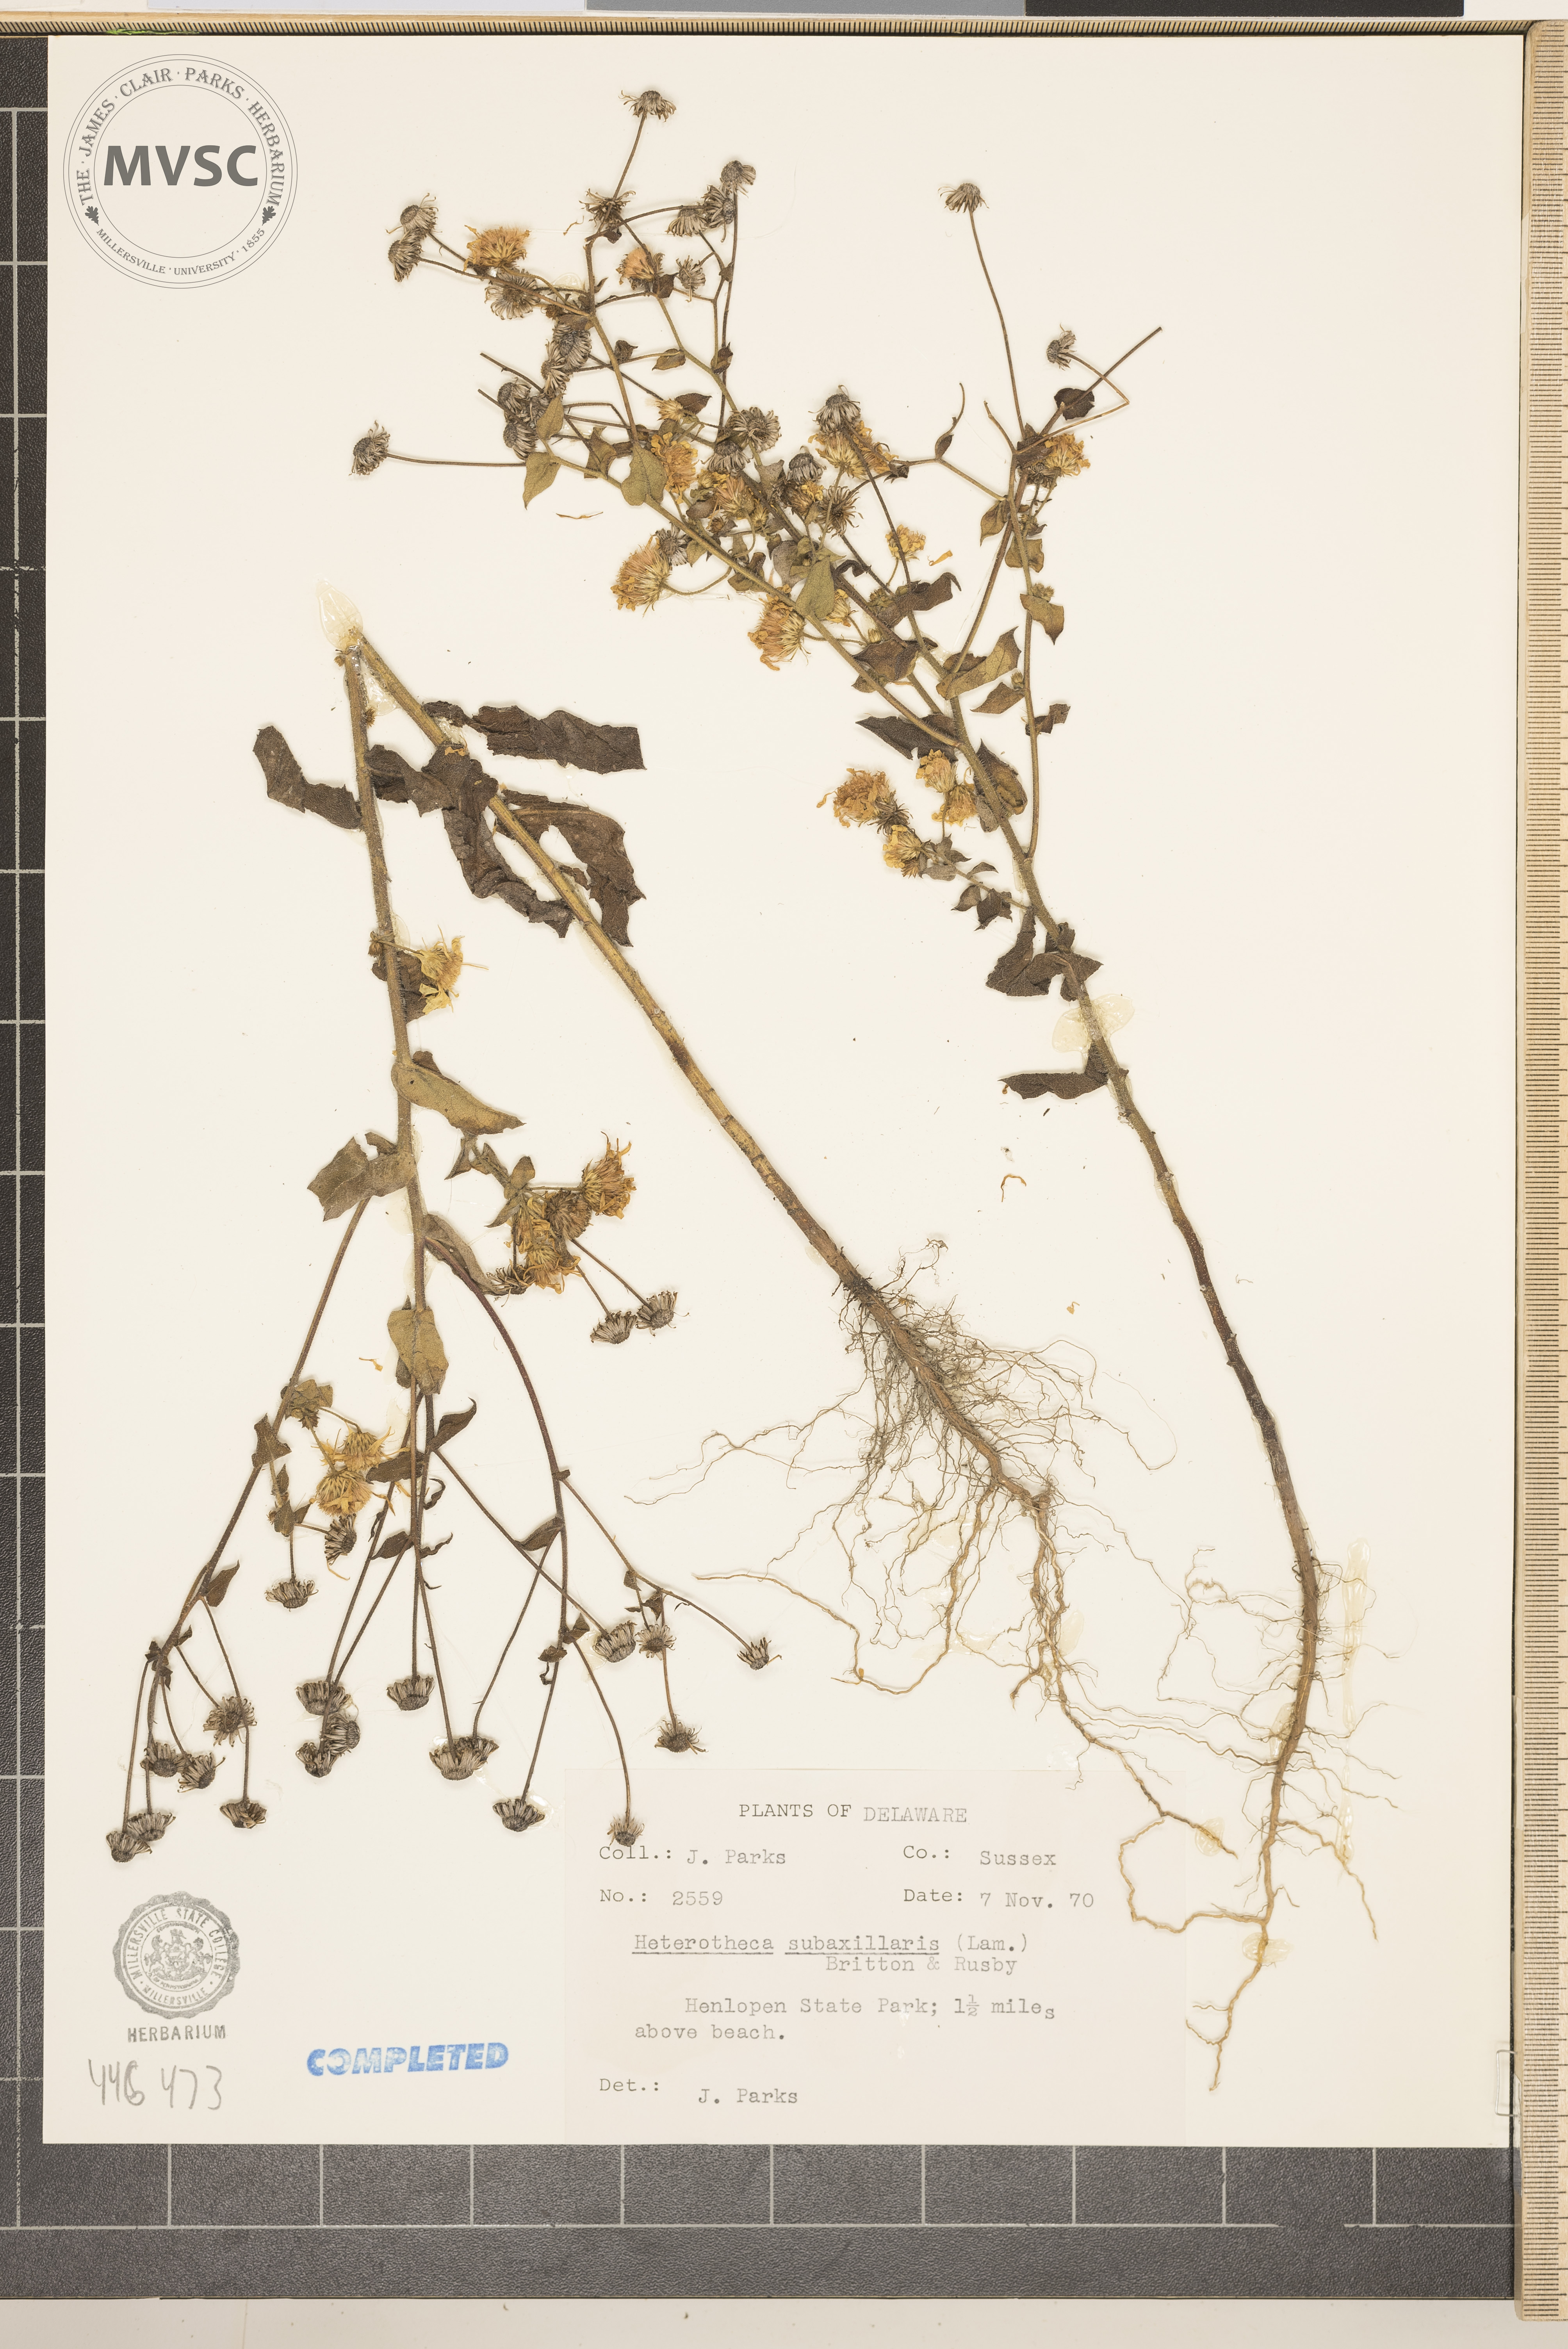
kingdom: Plantae
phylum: Tracheophyta
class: Magnoliopsida
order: Asterales
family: Asteraceae
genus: Heterotheca
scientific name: Heterotheca subaxillaris
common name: Camphorweed
